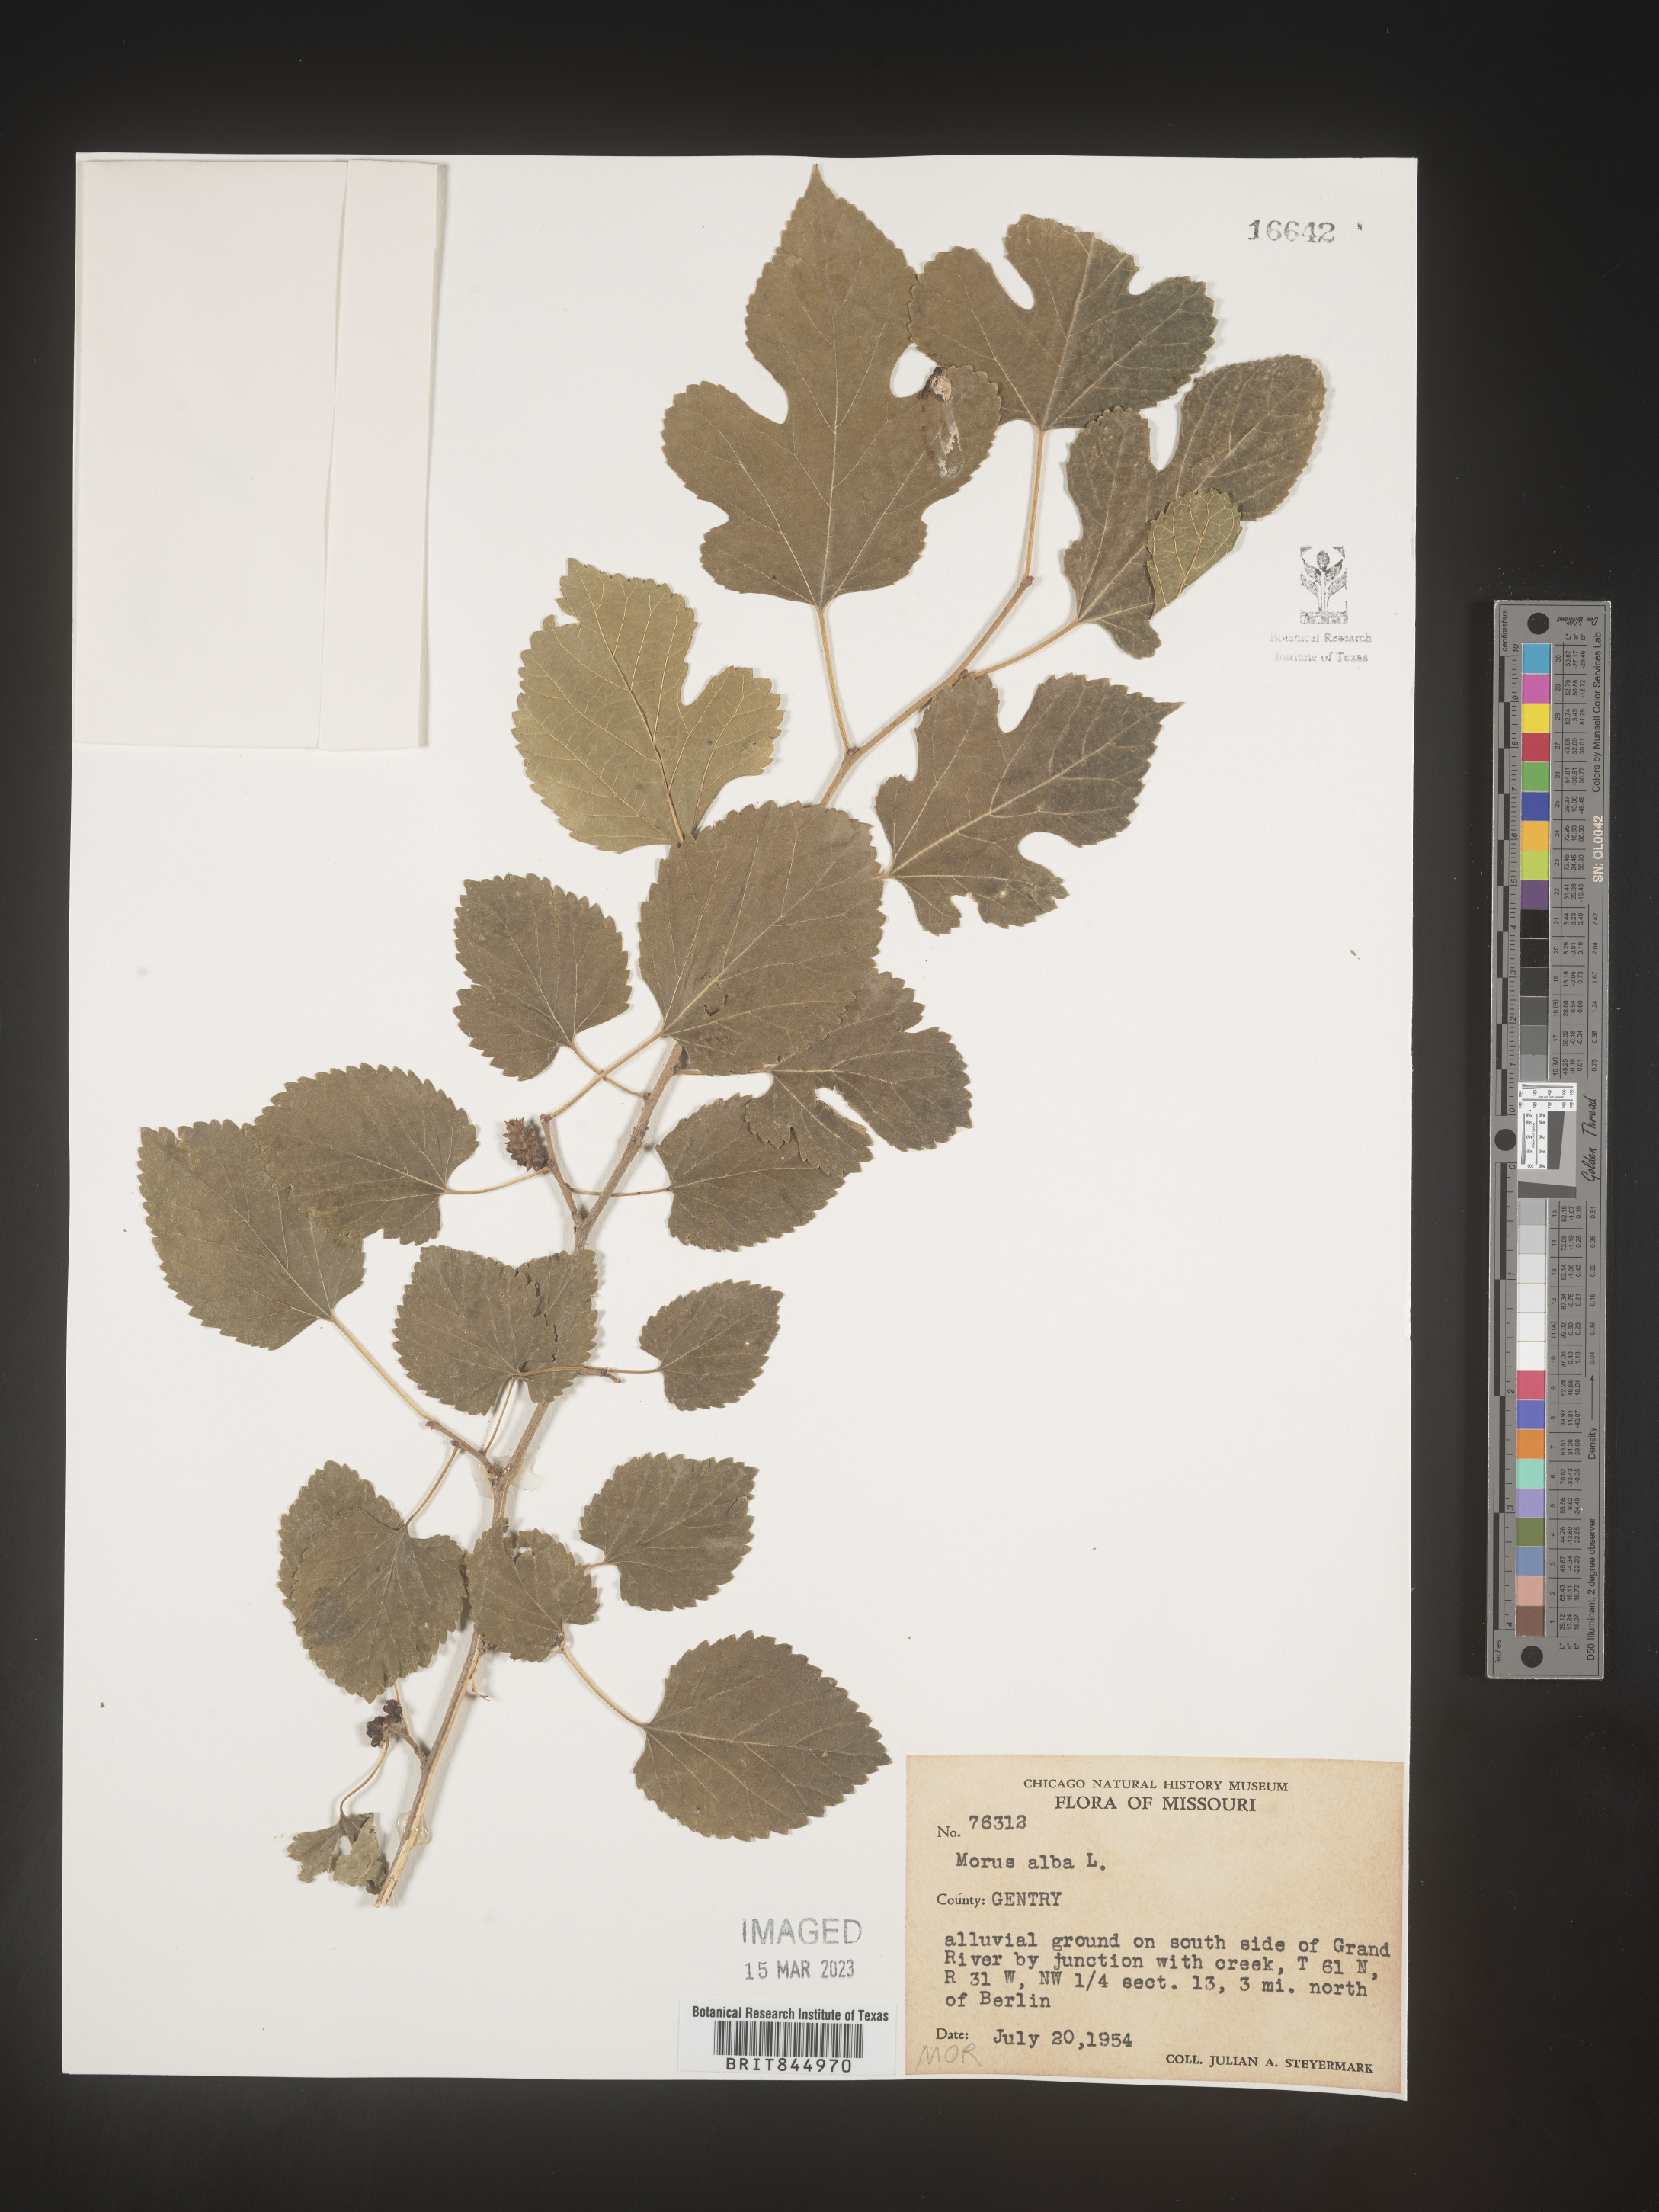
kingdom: Plantae
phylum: Tracheophyta
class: Magnoliopsida
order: Rosales
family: Moraceae
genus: Morus
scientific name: Morus alba
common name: White mulberry
